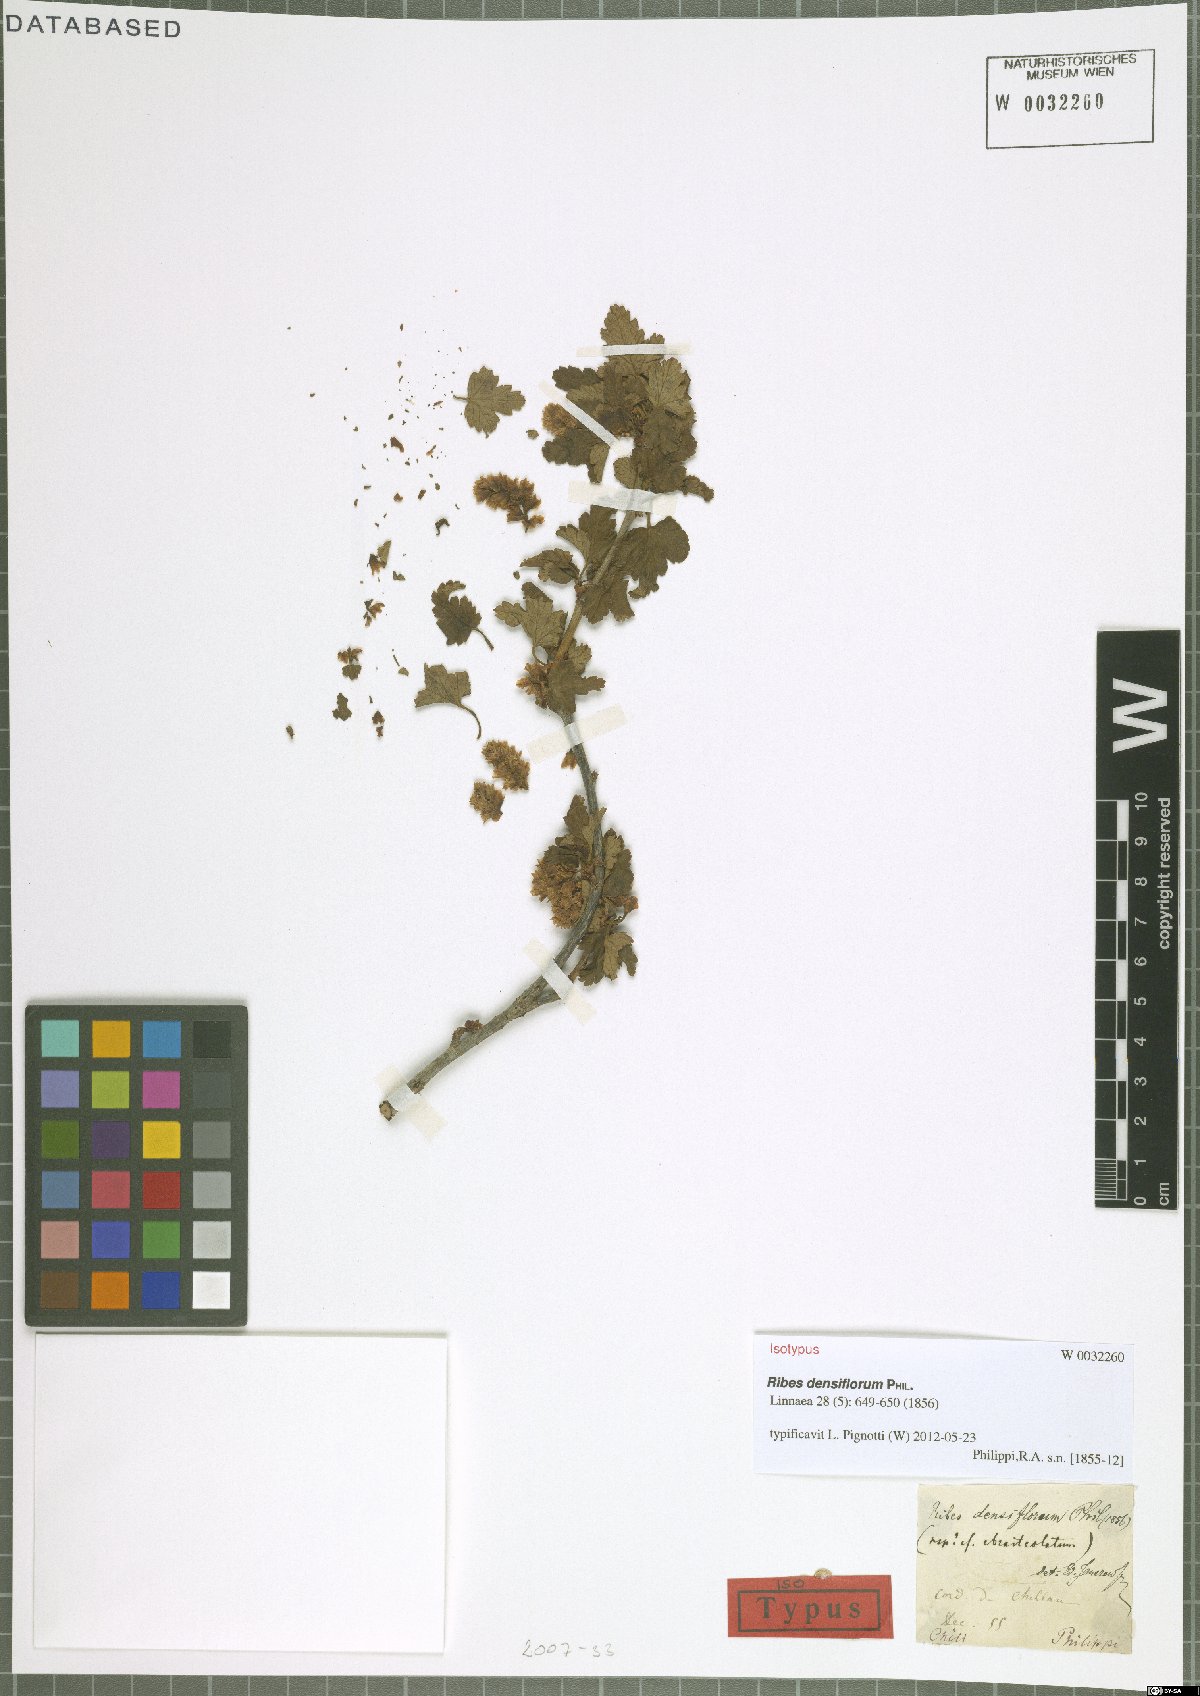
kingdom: Plantae
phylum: Tracheophyta
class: Magnoliopsida
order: Saxifragales
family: Grossulariaceae
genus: Ribes
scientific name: Ribes densiflorum
